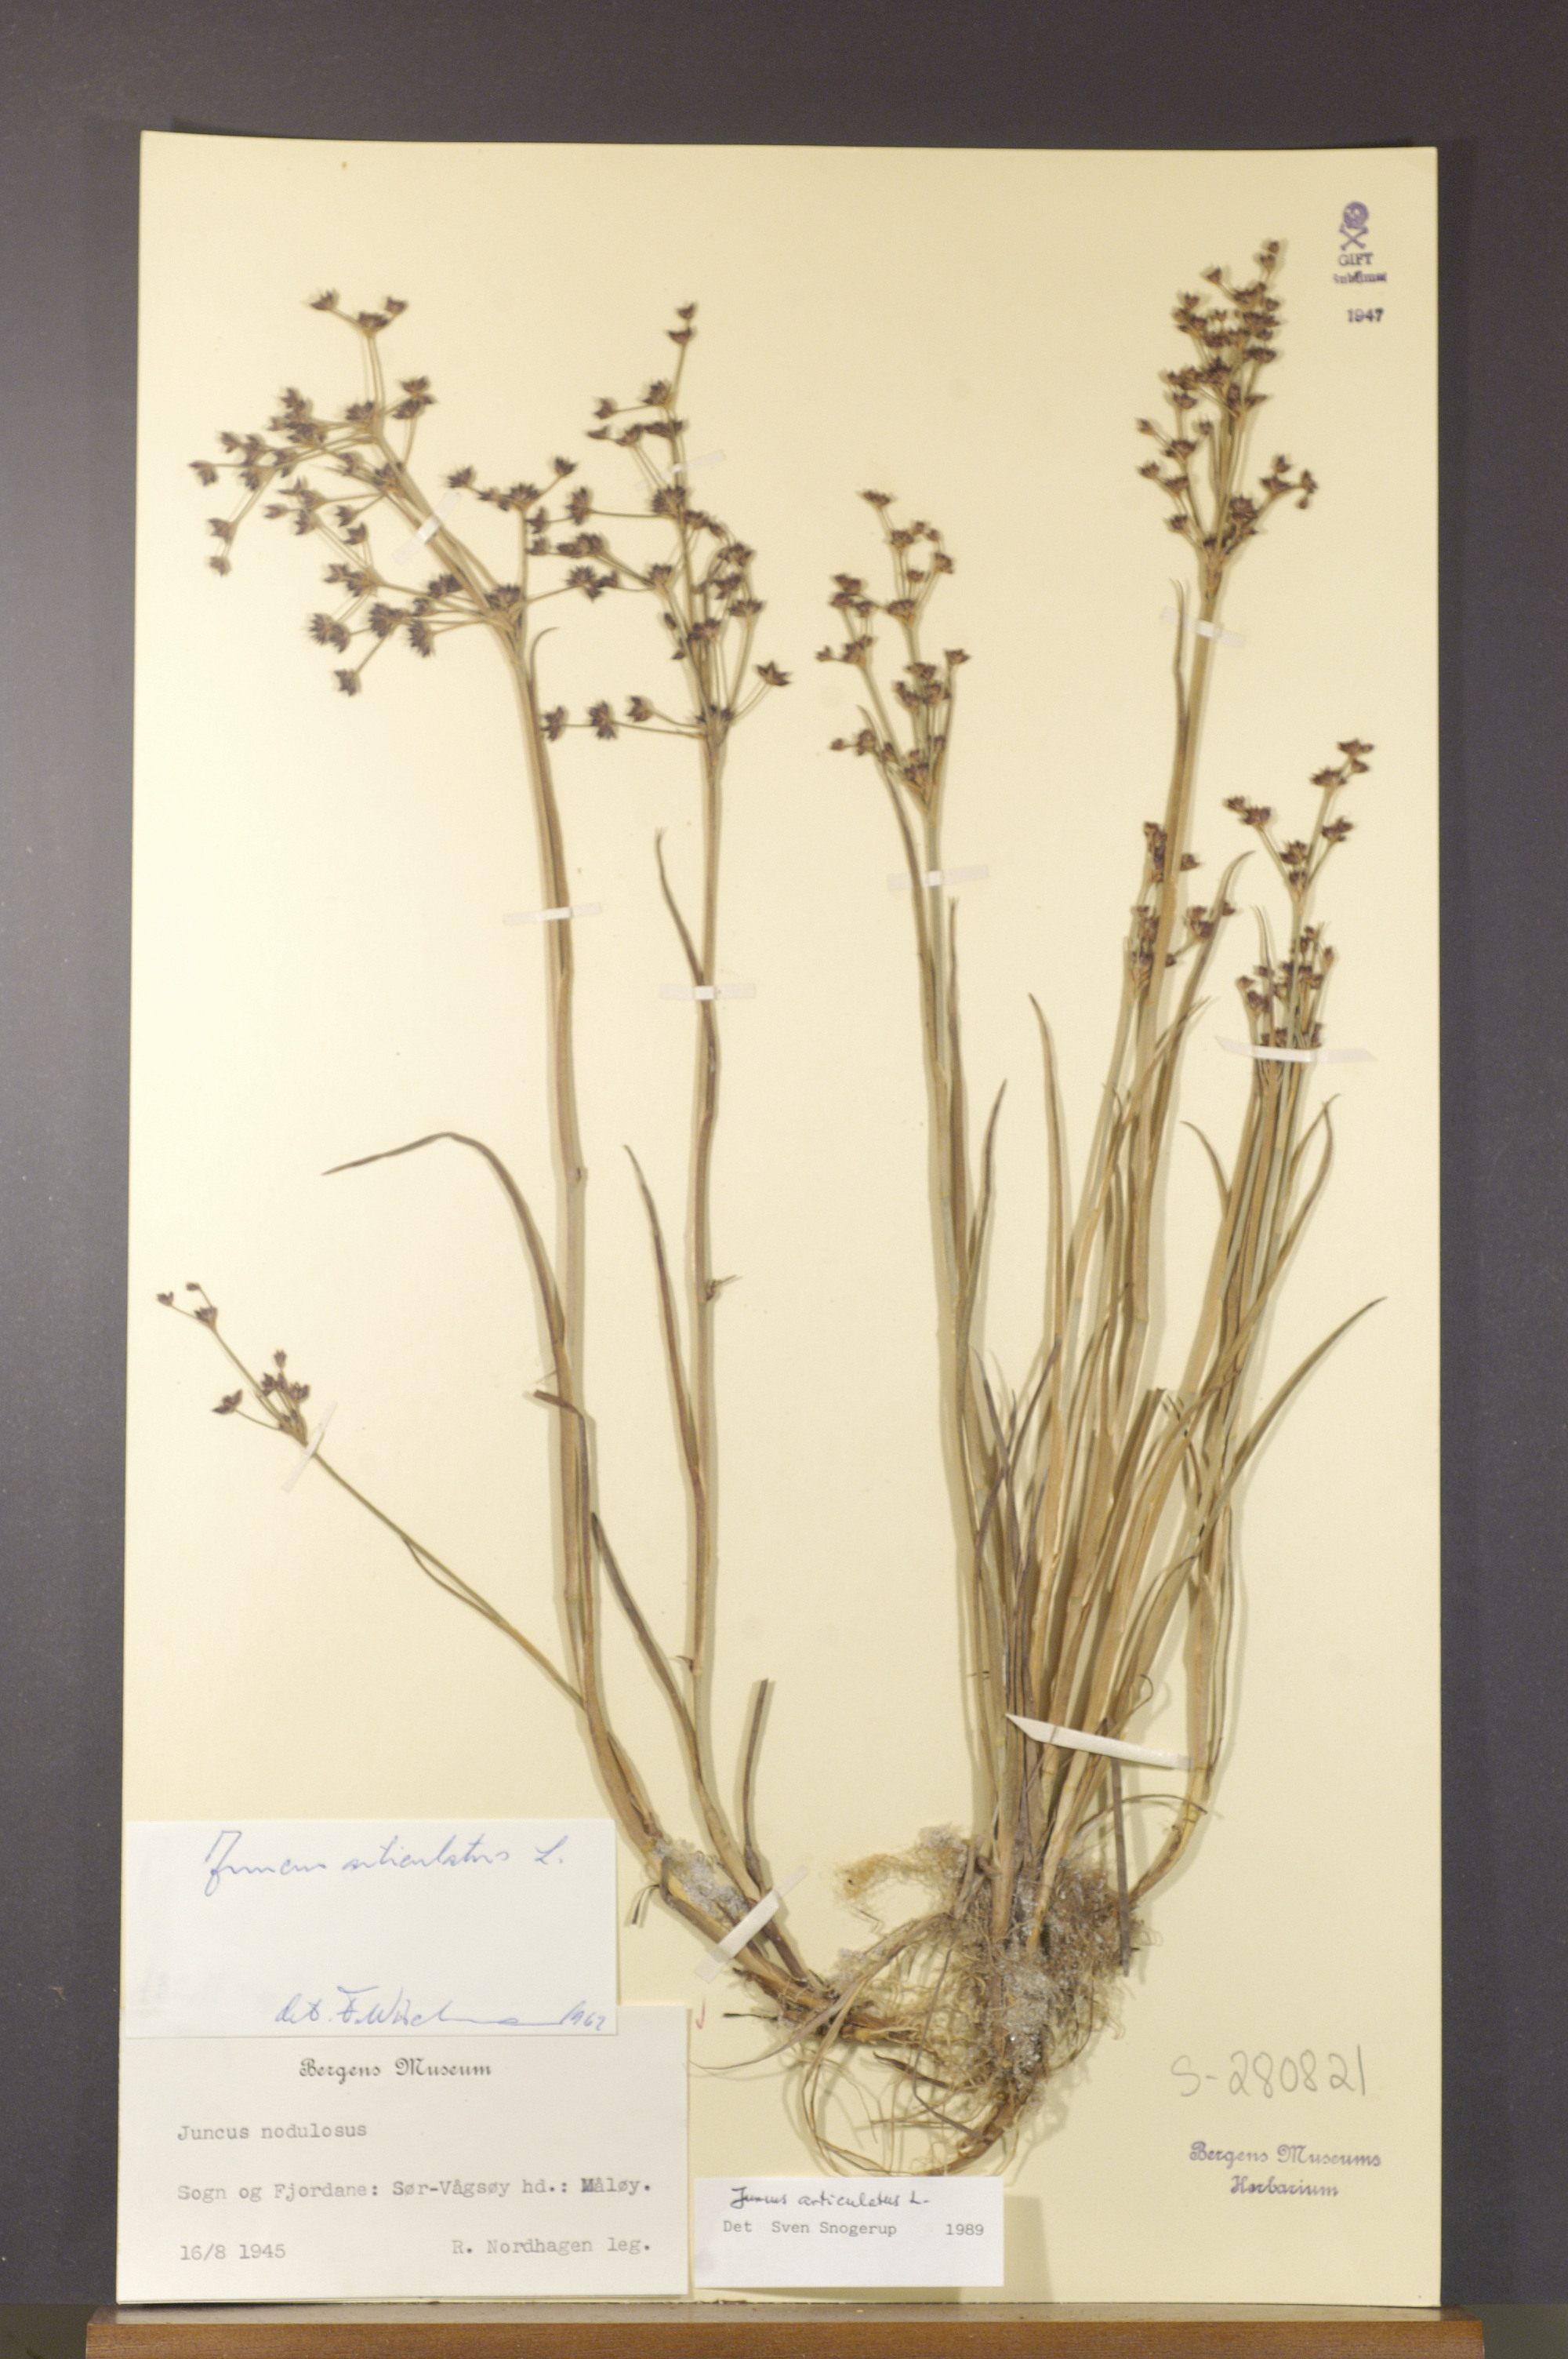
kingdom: Plantae
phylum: Tracheophyta
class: Liliopsida
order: Poales
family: Juncaceae
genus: Juncus
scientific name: Juncus articulatus
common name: Jointed rush
